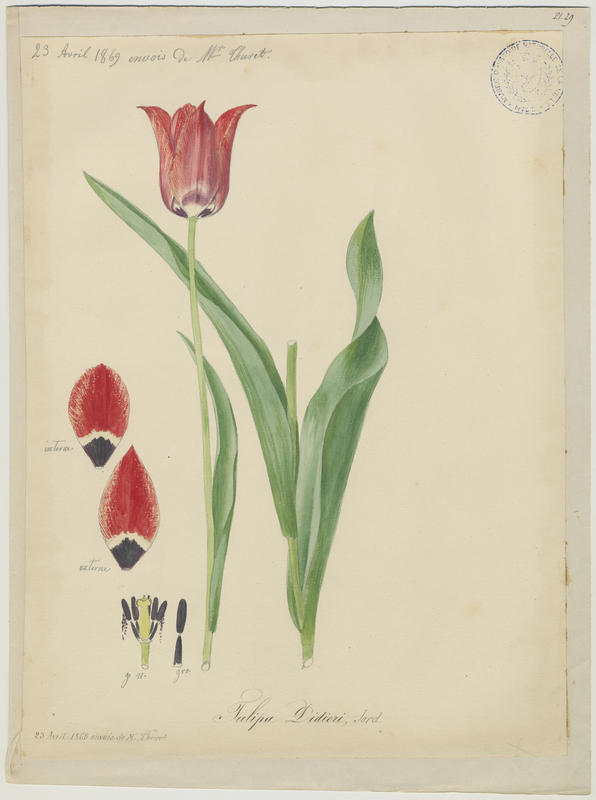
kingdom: Plantae
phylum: Tracheophyta
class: Liliopsida
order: Liliales
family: Liliaceae
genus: Tulipa
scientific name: Tulipa gesneriana
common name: Garden tulip
